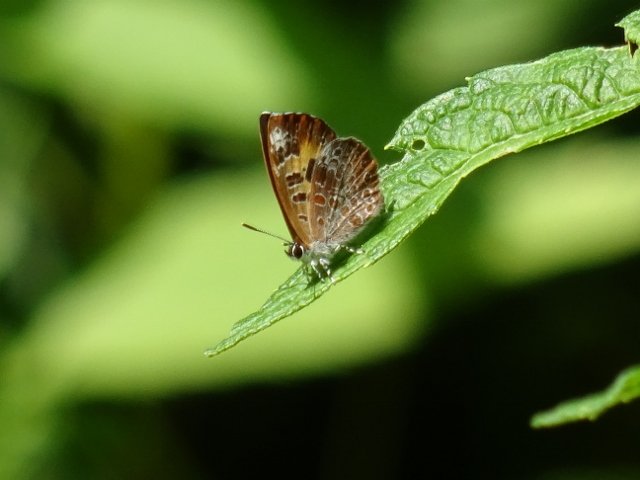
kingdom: Animalia
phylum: Arthropoda
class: Insecta
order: Lepidoptera
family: Lycaenidae
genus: Feniseca
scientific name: Feniseca tarquinius
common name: Harvester
